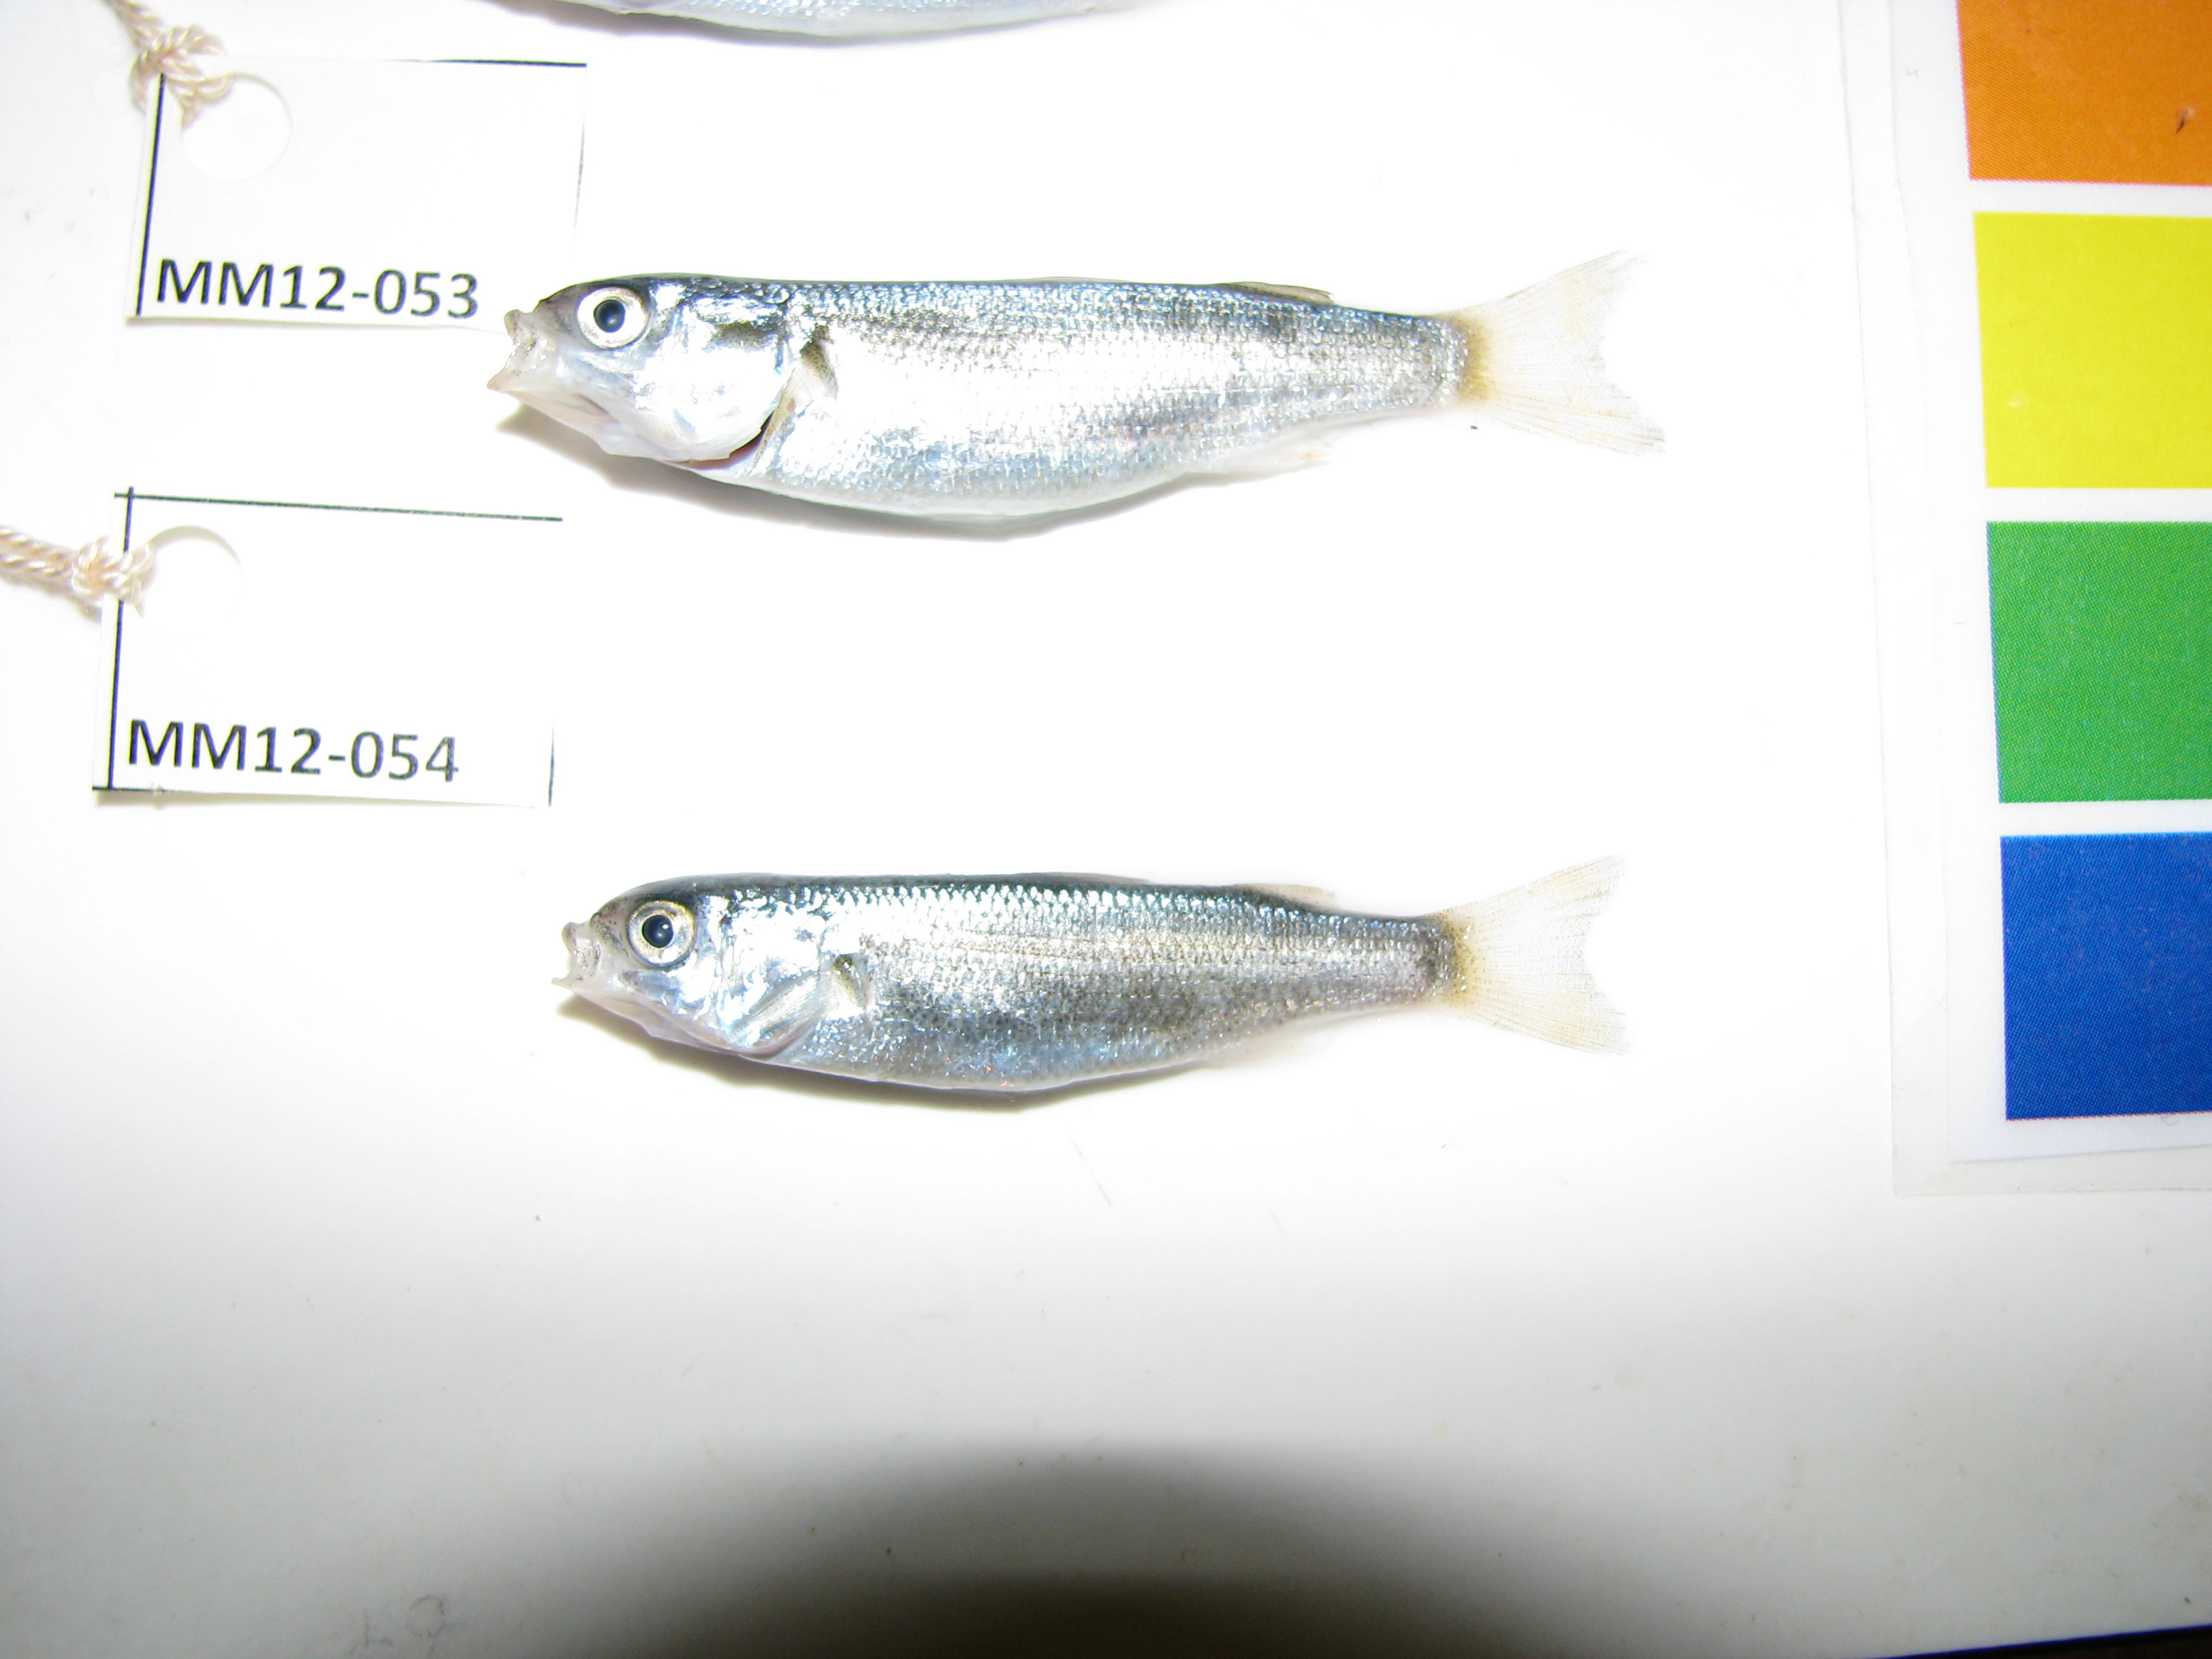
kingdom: Animalia
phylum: Chordata
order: Mugiliformes
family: Mugilidae
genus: Pseudomyxus
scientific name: Pseudomyxus capensis
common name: Freshwater mullet
